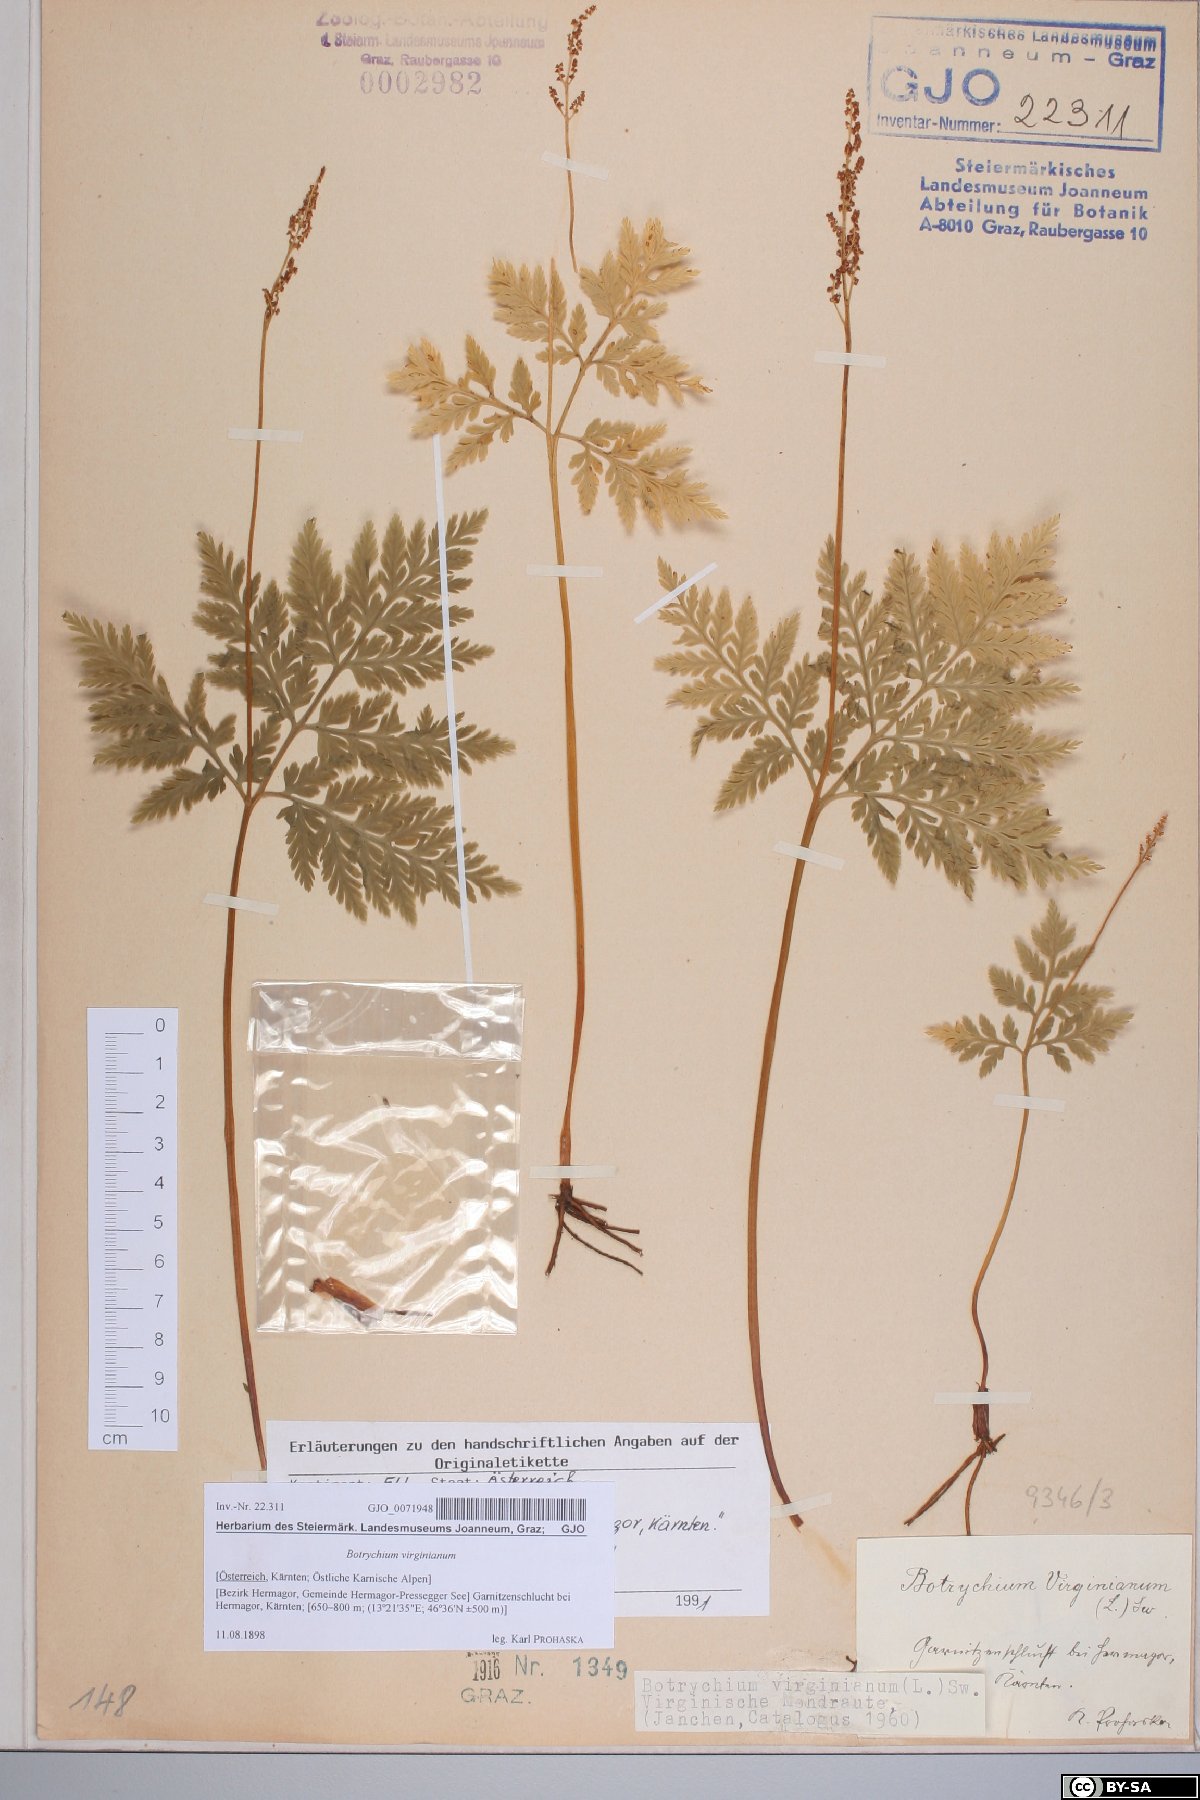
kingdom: Plantae
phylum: Tracheophyta
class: Polypodiopsida
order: Ophioglossales
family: Ophioglossaceae
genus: Botrypus
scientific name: Botrypus virginianus
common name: Common grapefern
